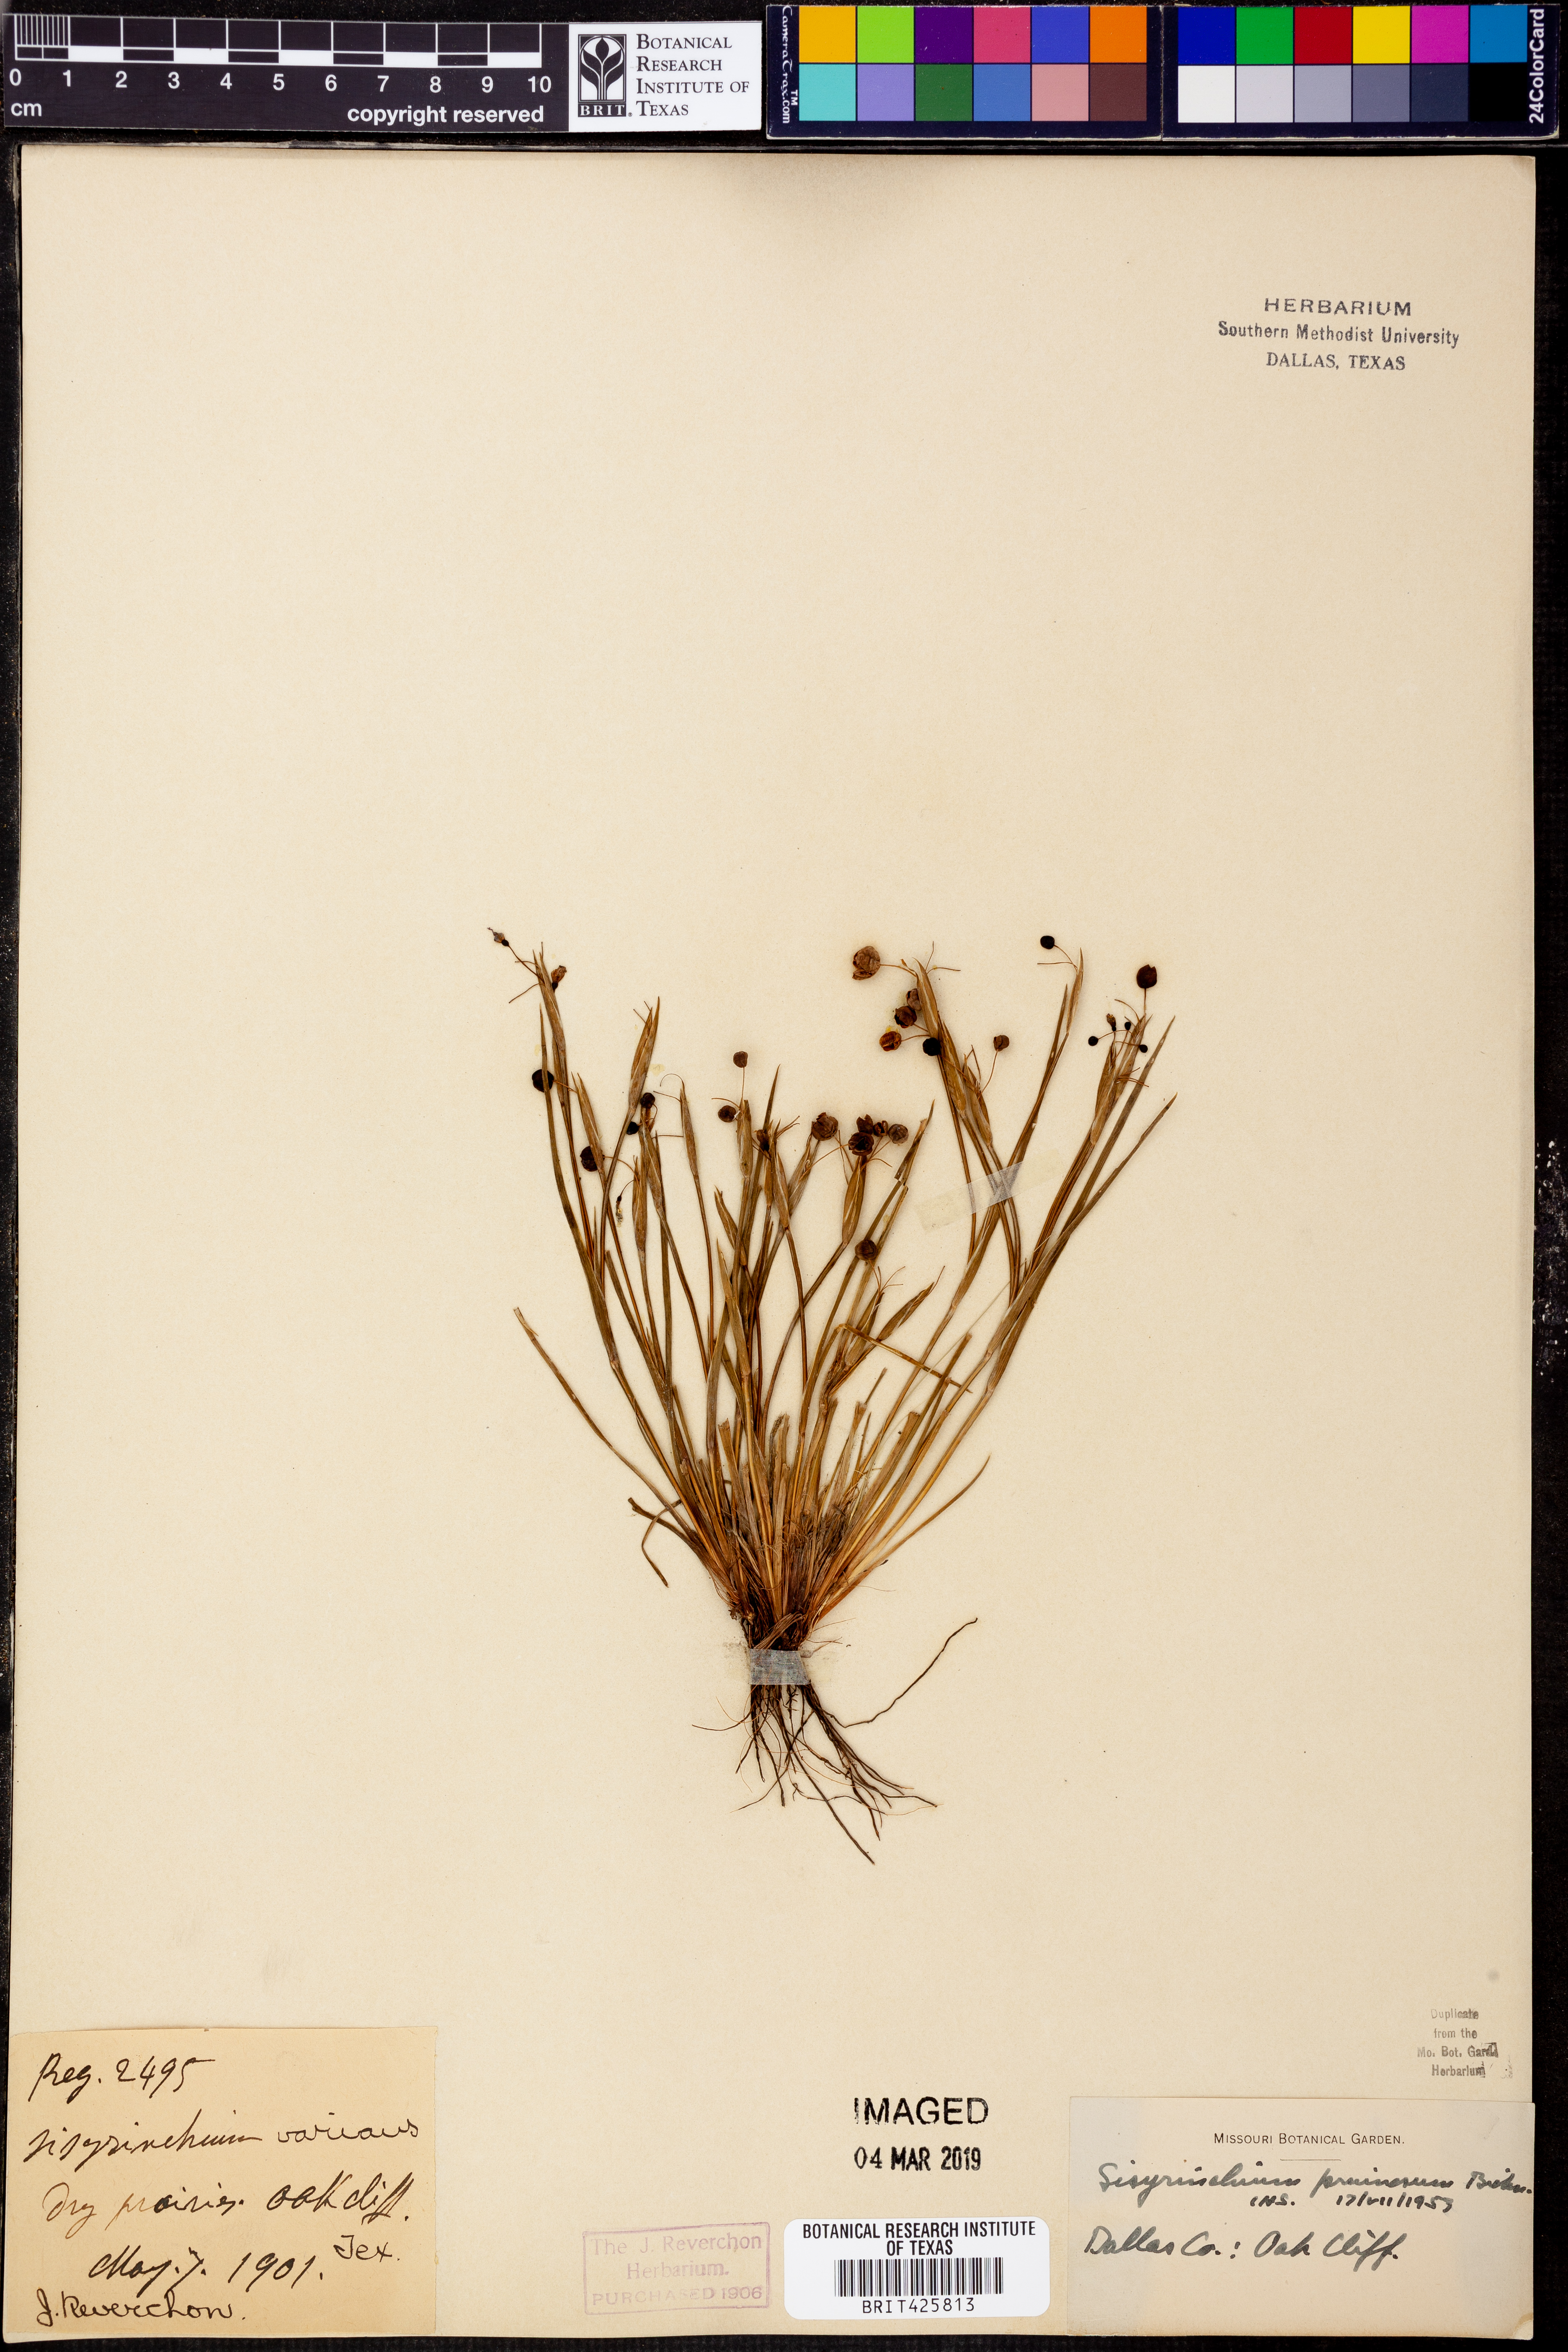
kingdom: Plantae
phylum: Tracheophyta
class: Liliopsida
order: Asparagales
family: Iridaceae
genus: Sisyrinchium
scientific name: Sisyrinchium pruinosum
